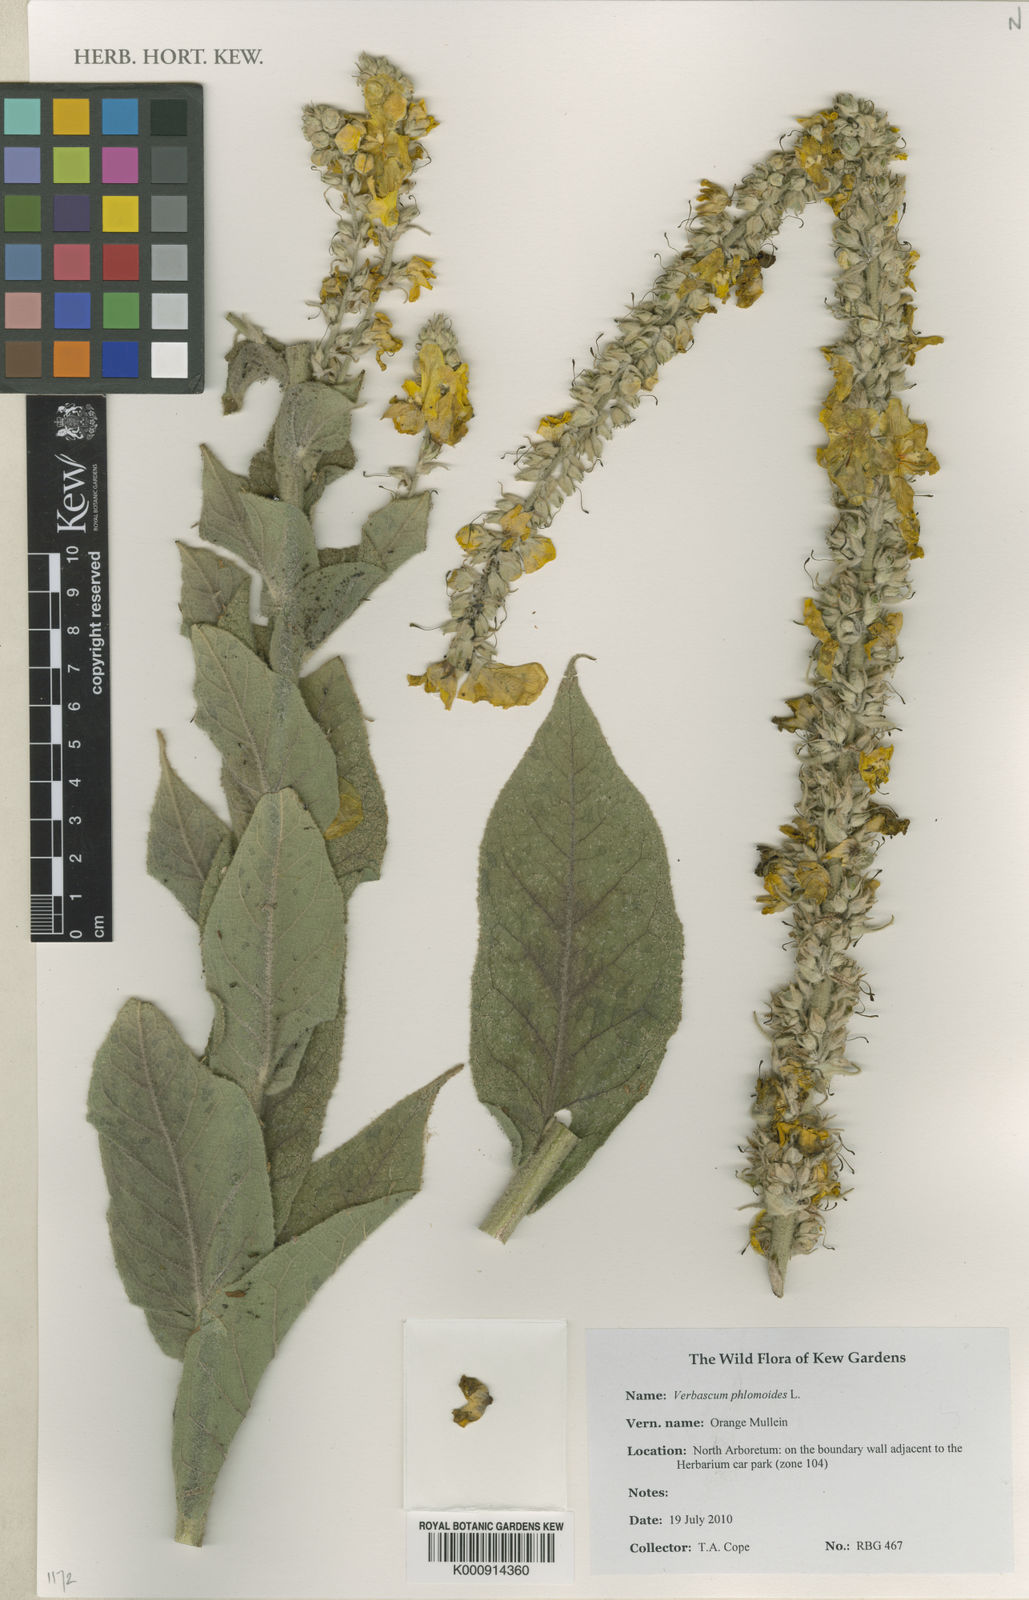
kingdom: Plantae
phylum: Tracheophyta
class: Magnoliopsida
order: Lamiales
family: Scrophulariaceae
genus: Verbascum
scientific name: Verbascum phlomoides
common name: Orange mullein
